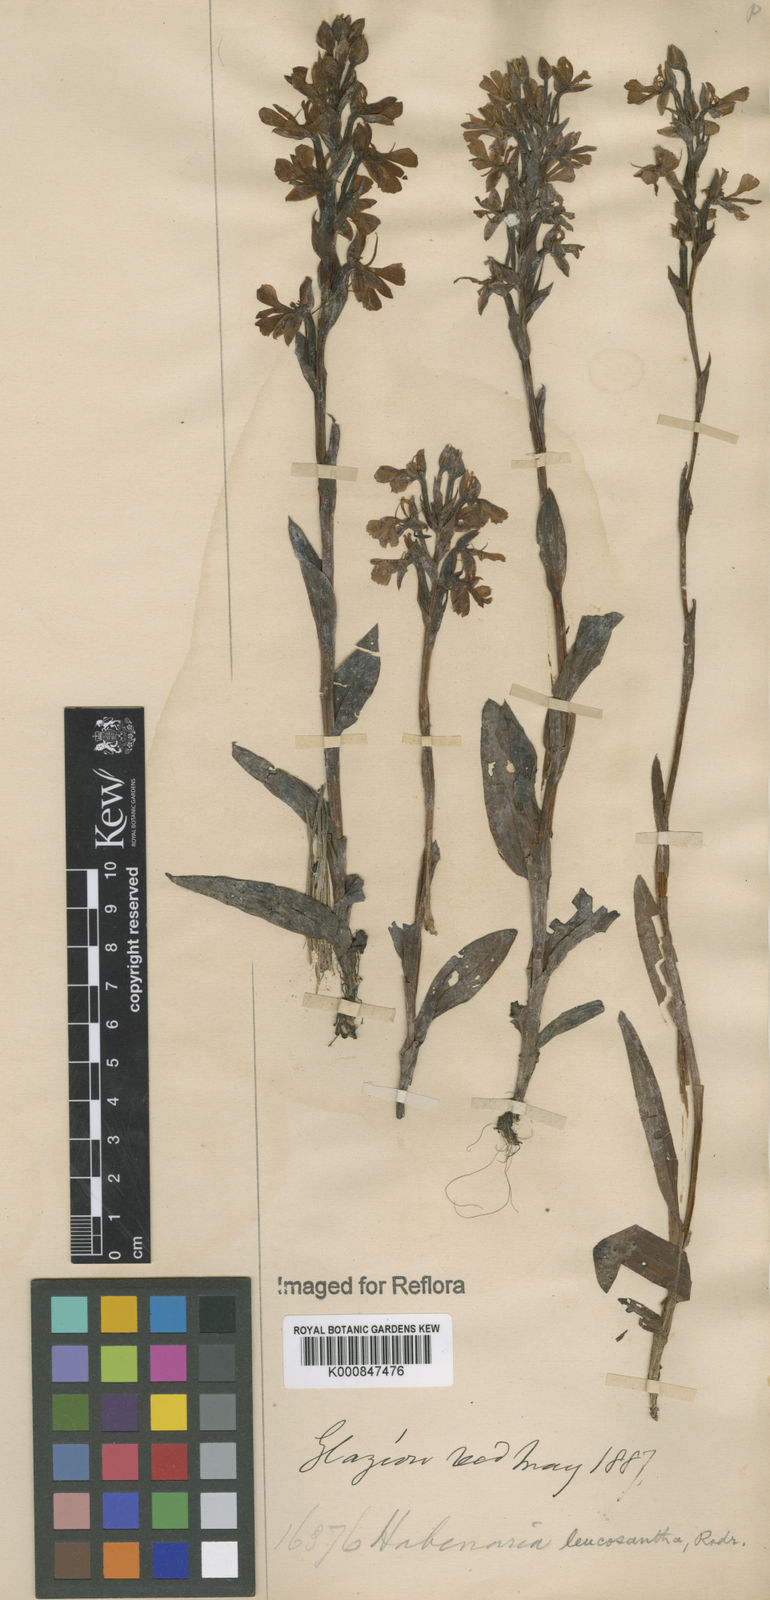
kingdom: Plantae
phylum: Tracheophyta
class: Liliopsida
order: Asparagales
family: Orchidaceae
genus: Habenaria
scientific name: Habenaria
